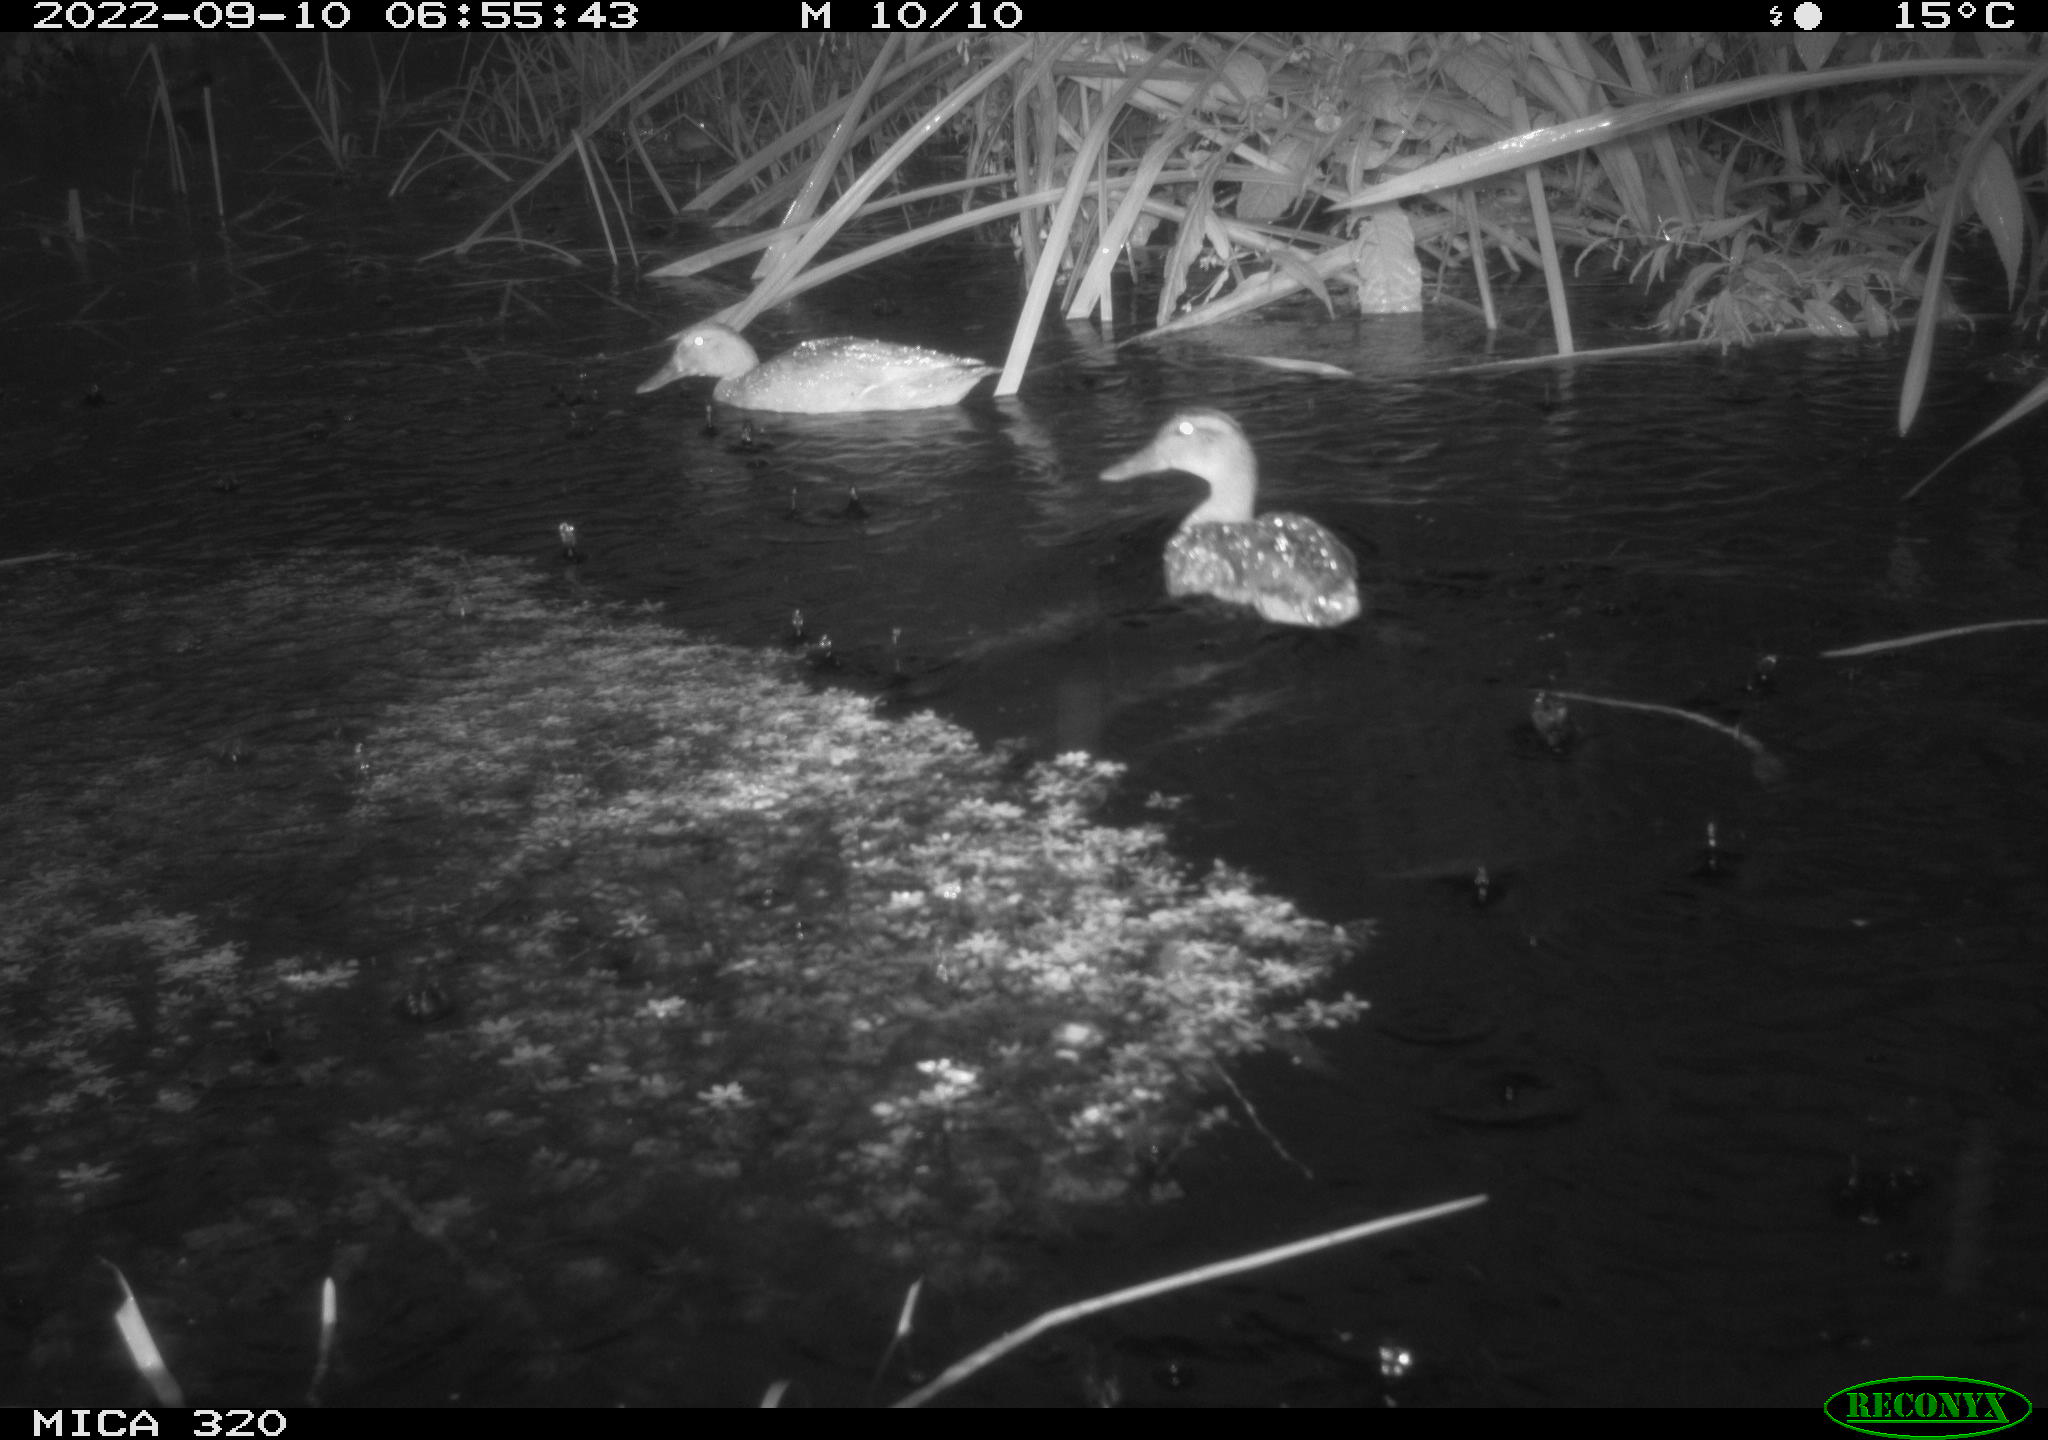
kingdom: Animalia
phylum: Chordata
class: Aves
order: Anseriformes
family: Anatidae
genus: Anas
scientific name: Anas platyrhynchos
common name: Mallard
